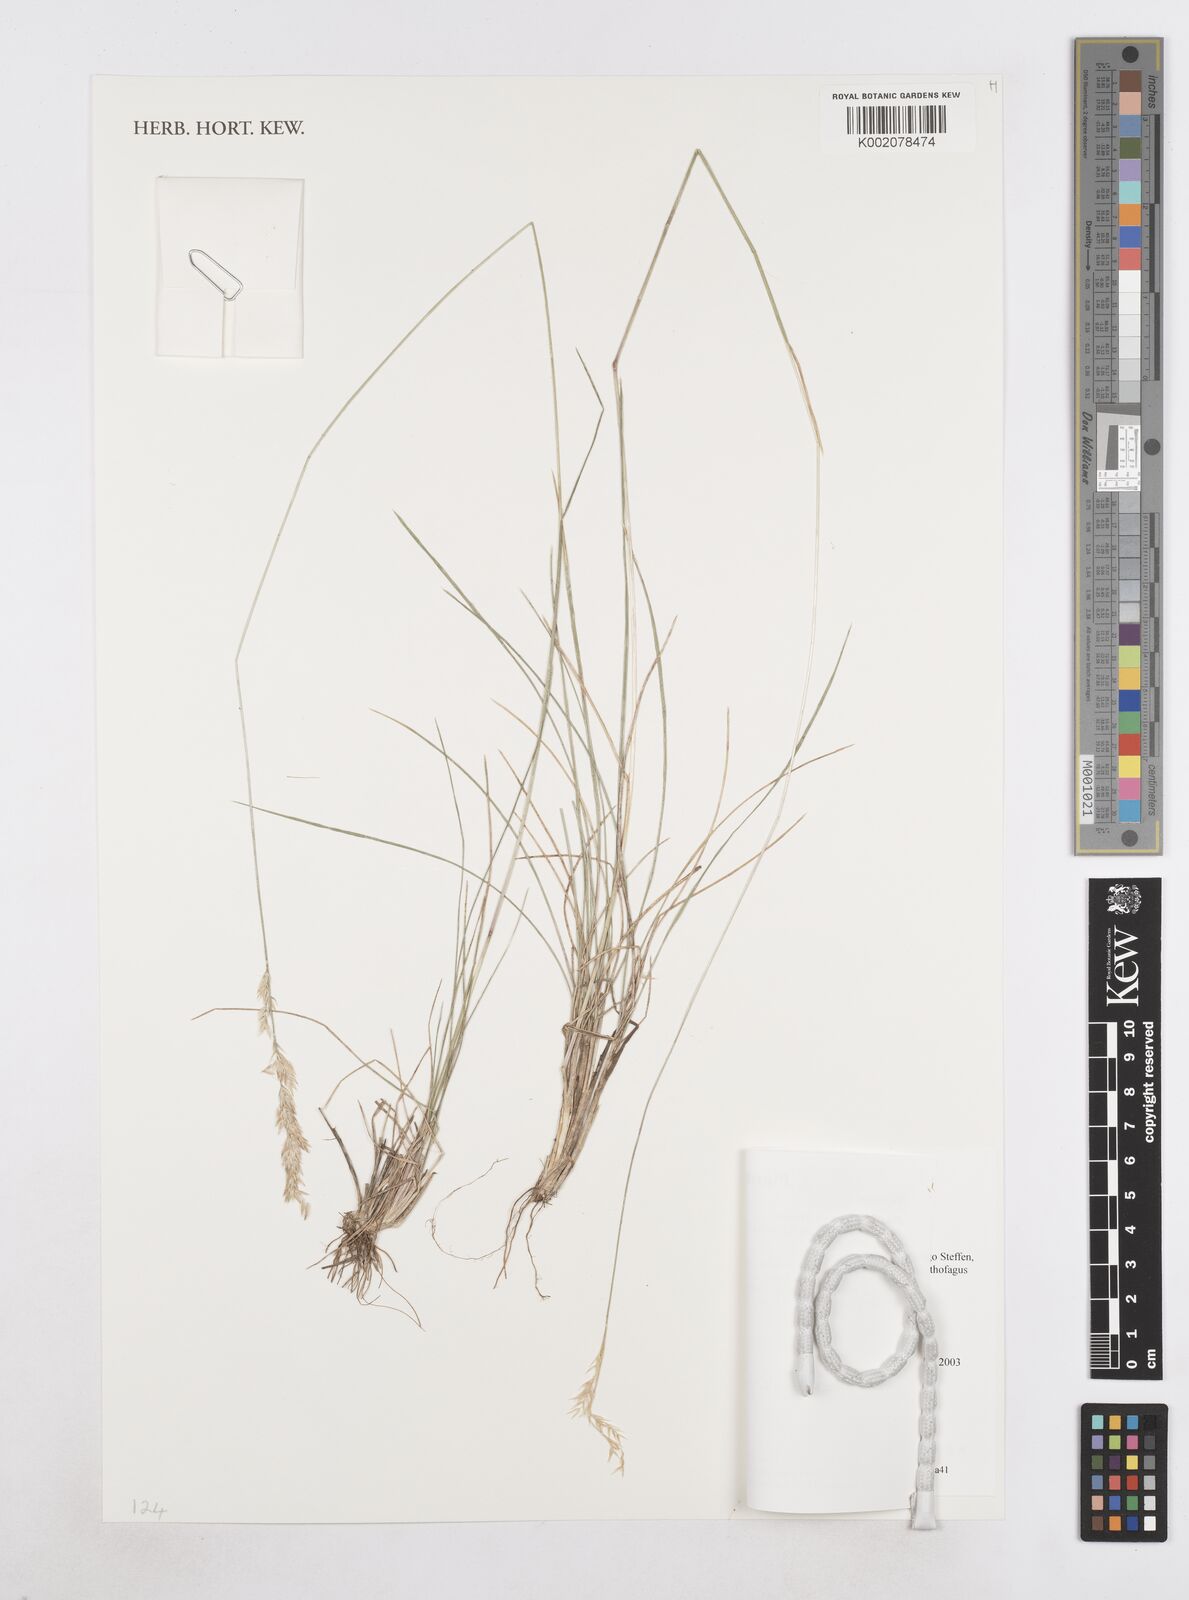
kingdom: Plantae
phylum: Tracheophyta
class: Liliopsida
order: Poales
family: Poaceae
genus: Poa
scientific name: Poa dentigluma
